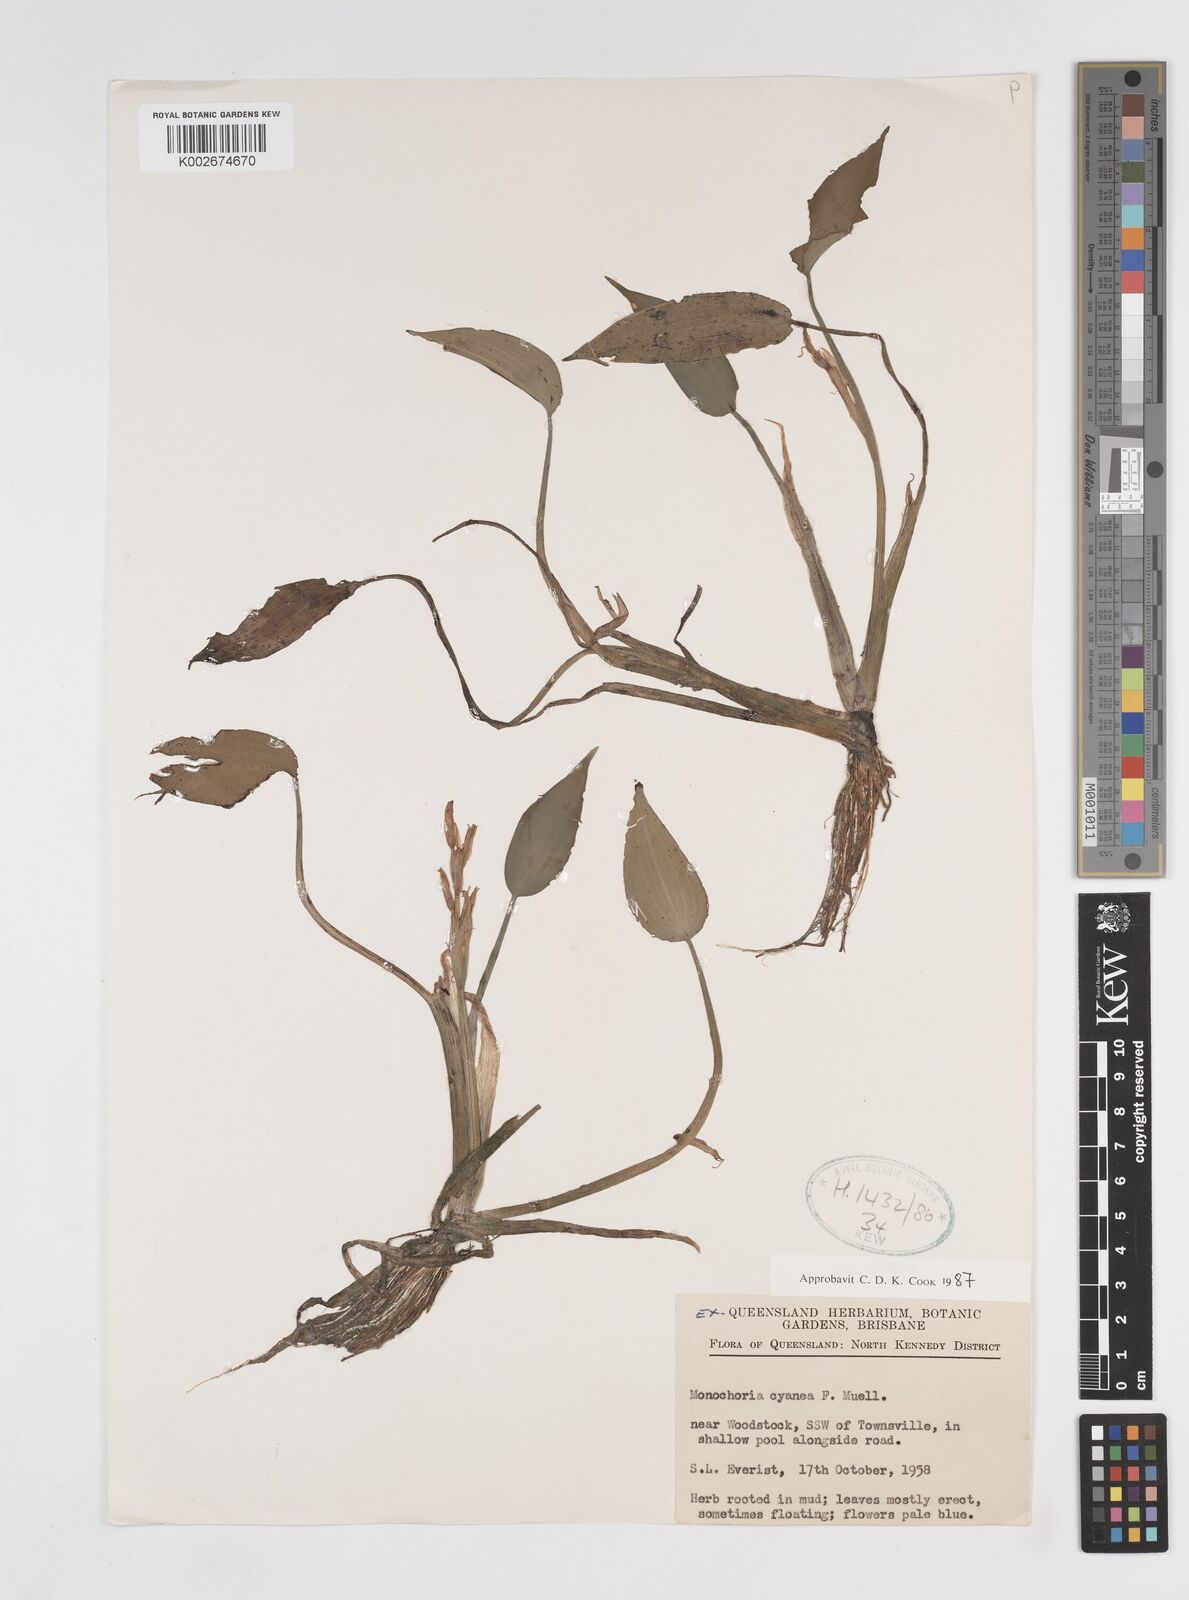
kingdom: Plantae
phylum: Tracheophyta
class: Liliopsida
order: Commelinales
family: Pontederiaceae
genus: Pontederia
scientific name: Pontederia cyanea
